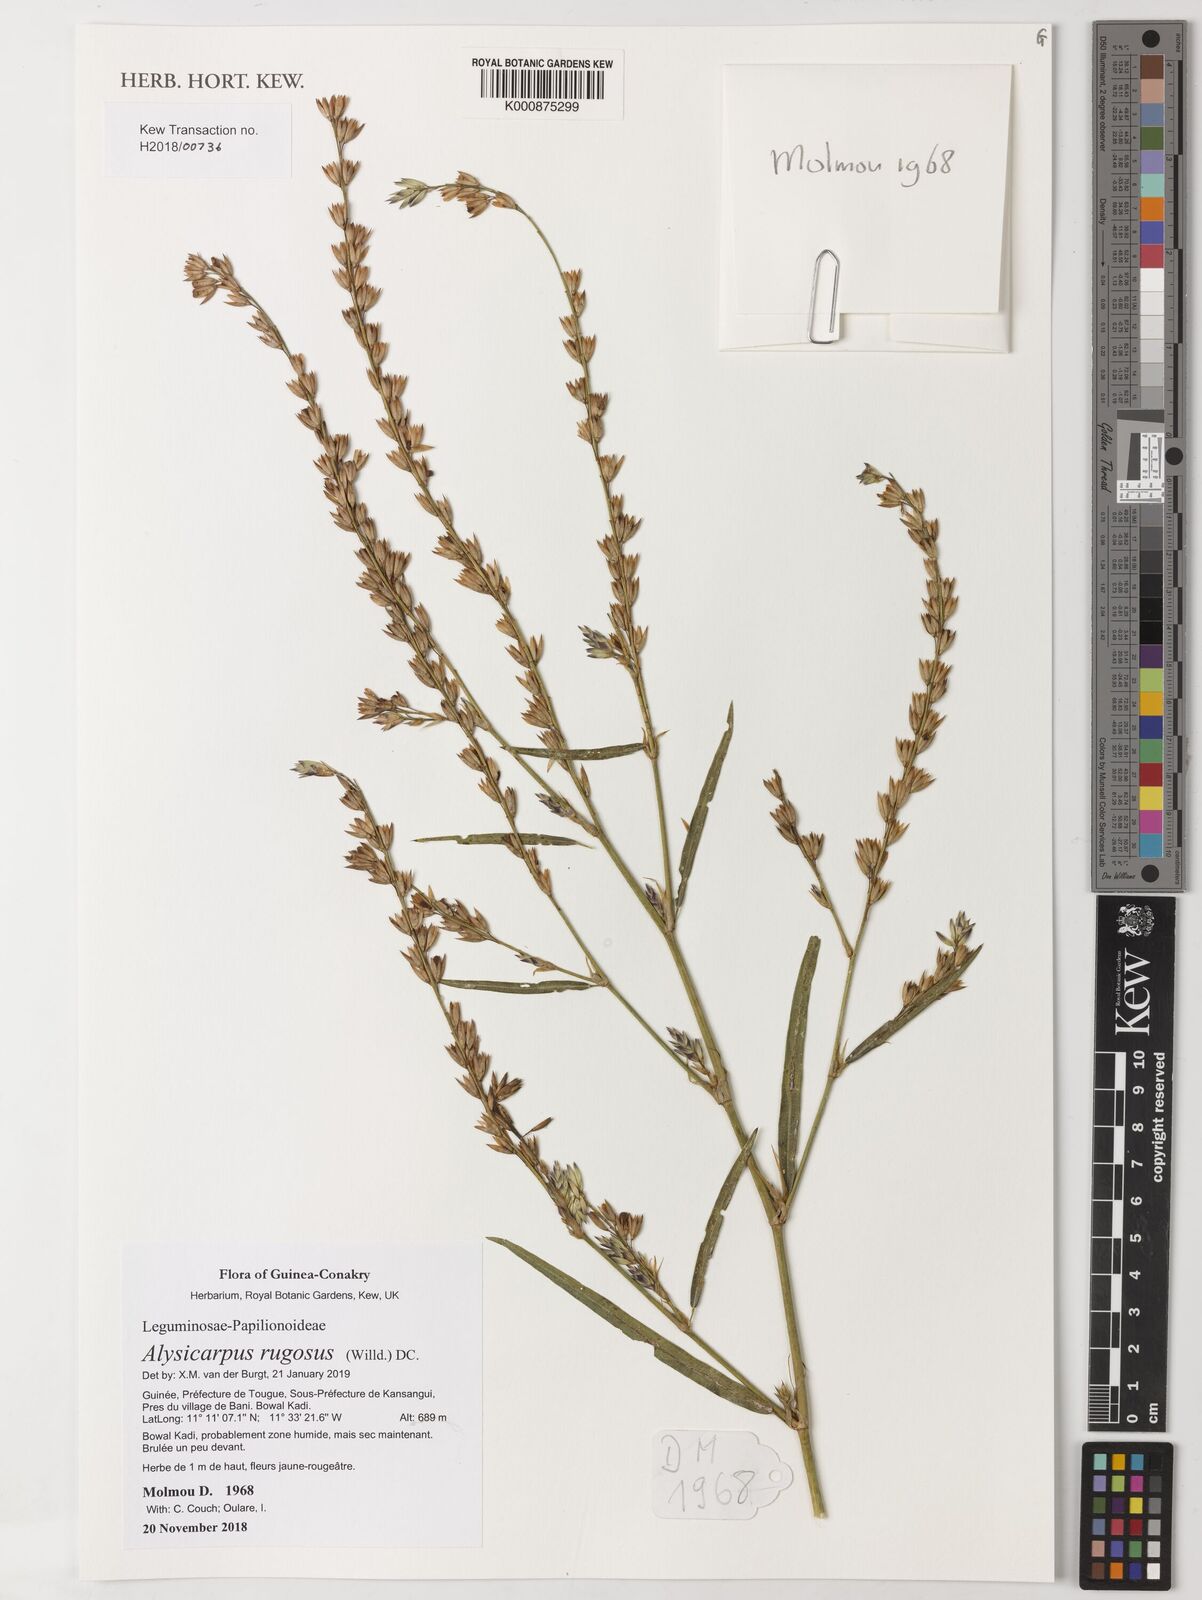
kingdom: Plantae
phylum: Tracheophyta
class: Magnoliopsida
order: Fabales
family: Fabaceae
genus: Alysicarpus
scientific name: Alysicarpus rugosus
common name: Red moneywort
